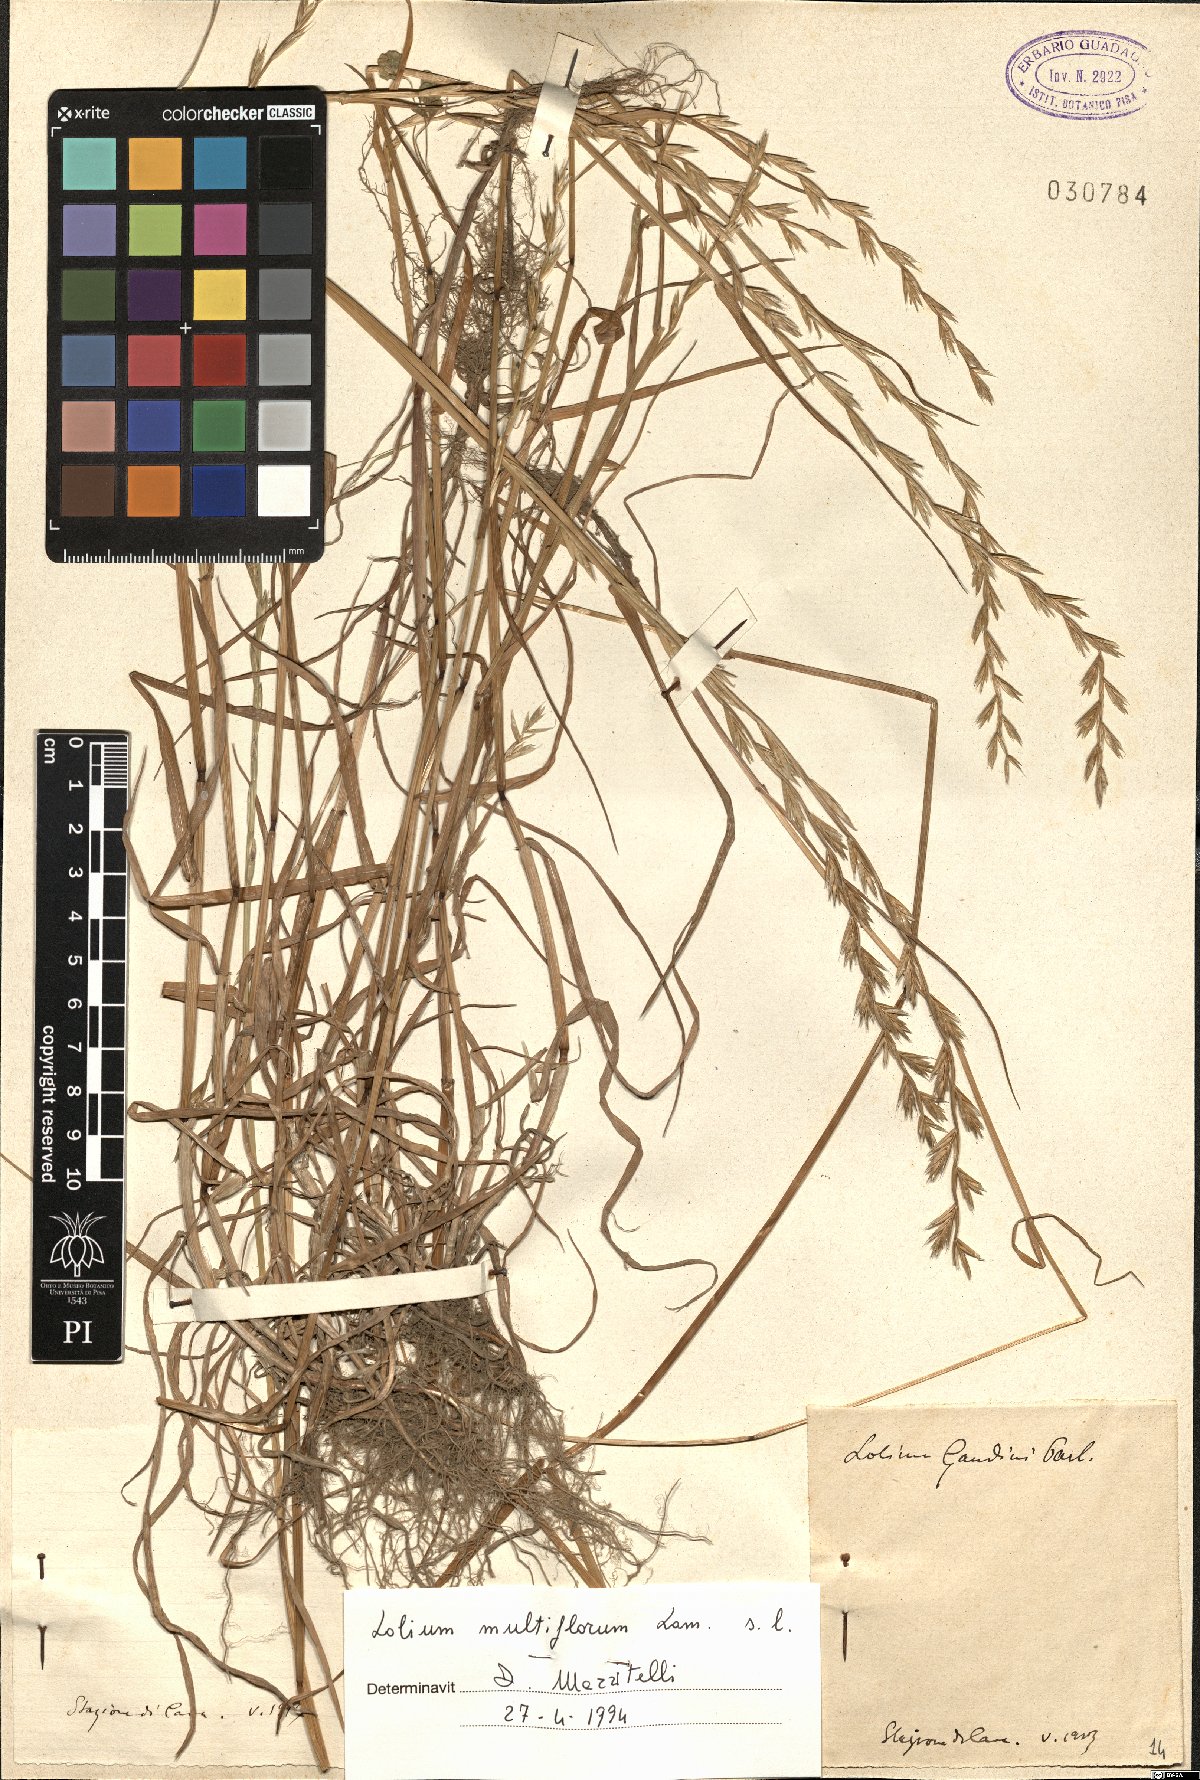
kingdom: Plantae
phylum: Tracheophyta
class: Liliopsida
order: Poales
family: Poaceae
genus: Lolium
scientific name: Lolium multiflorum
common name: Annual ryegrass
